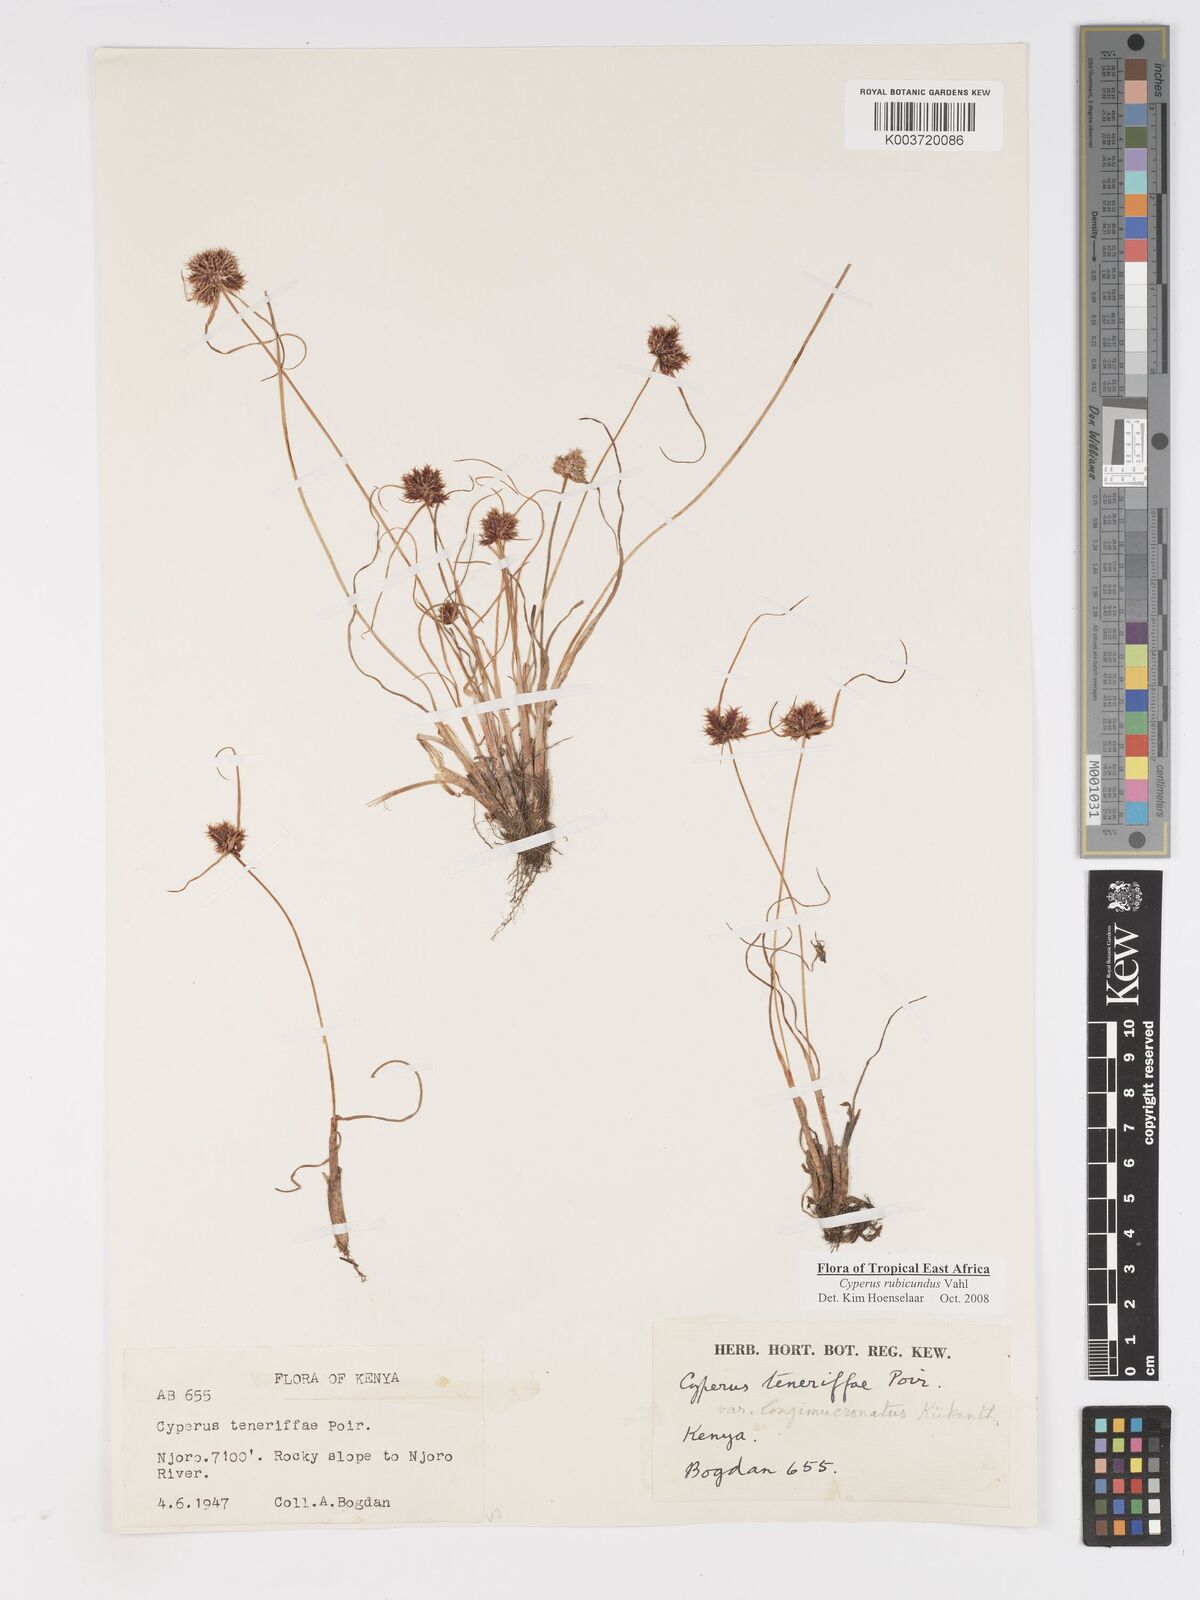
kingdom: Plantae
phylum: Tracheophyta
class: Liliopsida
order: Poales
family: Cyperaceae
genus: Cyperus
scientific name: Cyperus rubicundus
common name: Coco-grass
